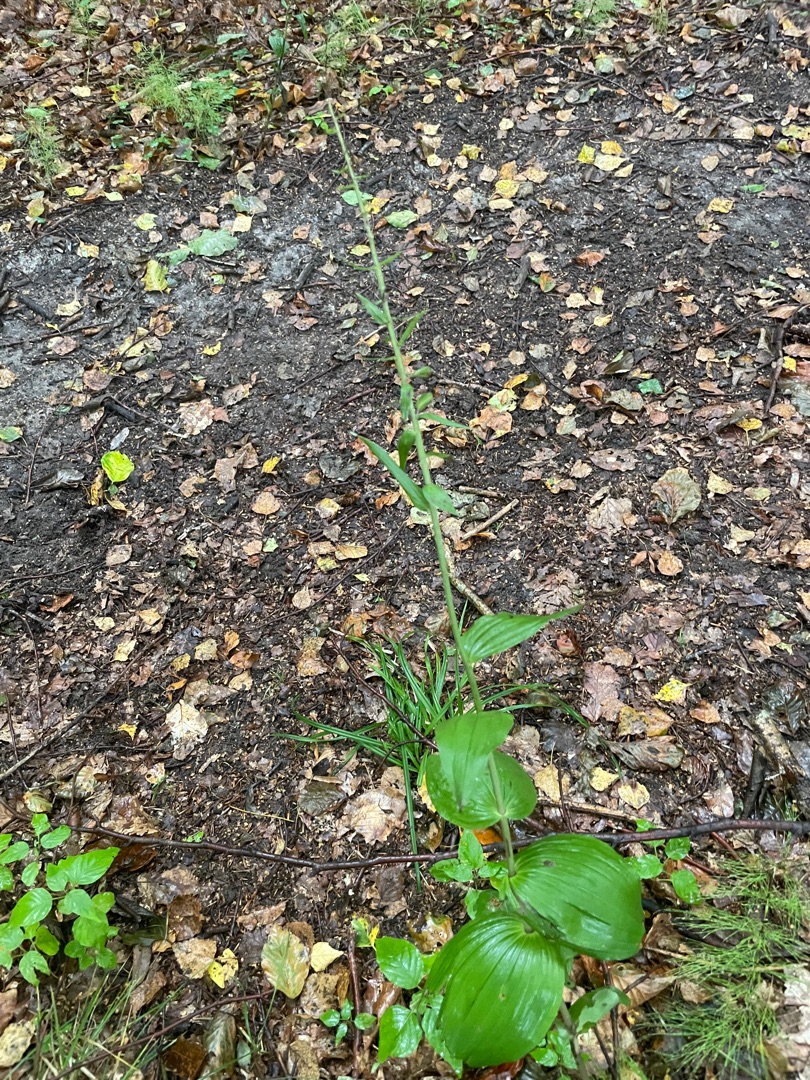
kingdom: Plantae
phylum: Tracheophyta
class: Liliopsida
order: Asparagales
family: Orchidaceae
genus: Epipactis
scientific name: Epipactis helleborine
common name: Skov-hullæbe
